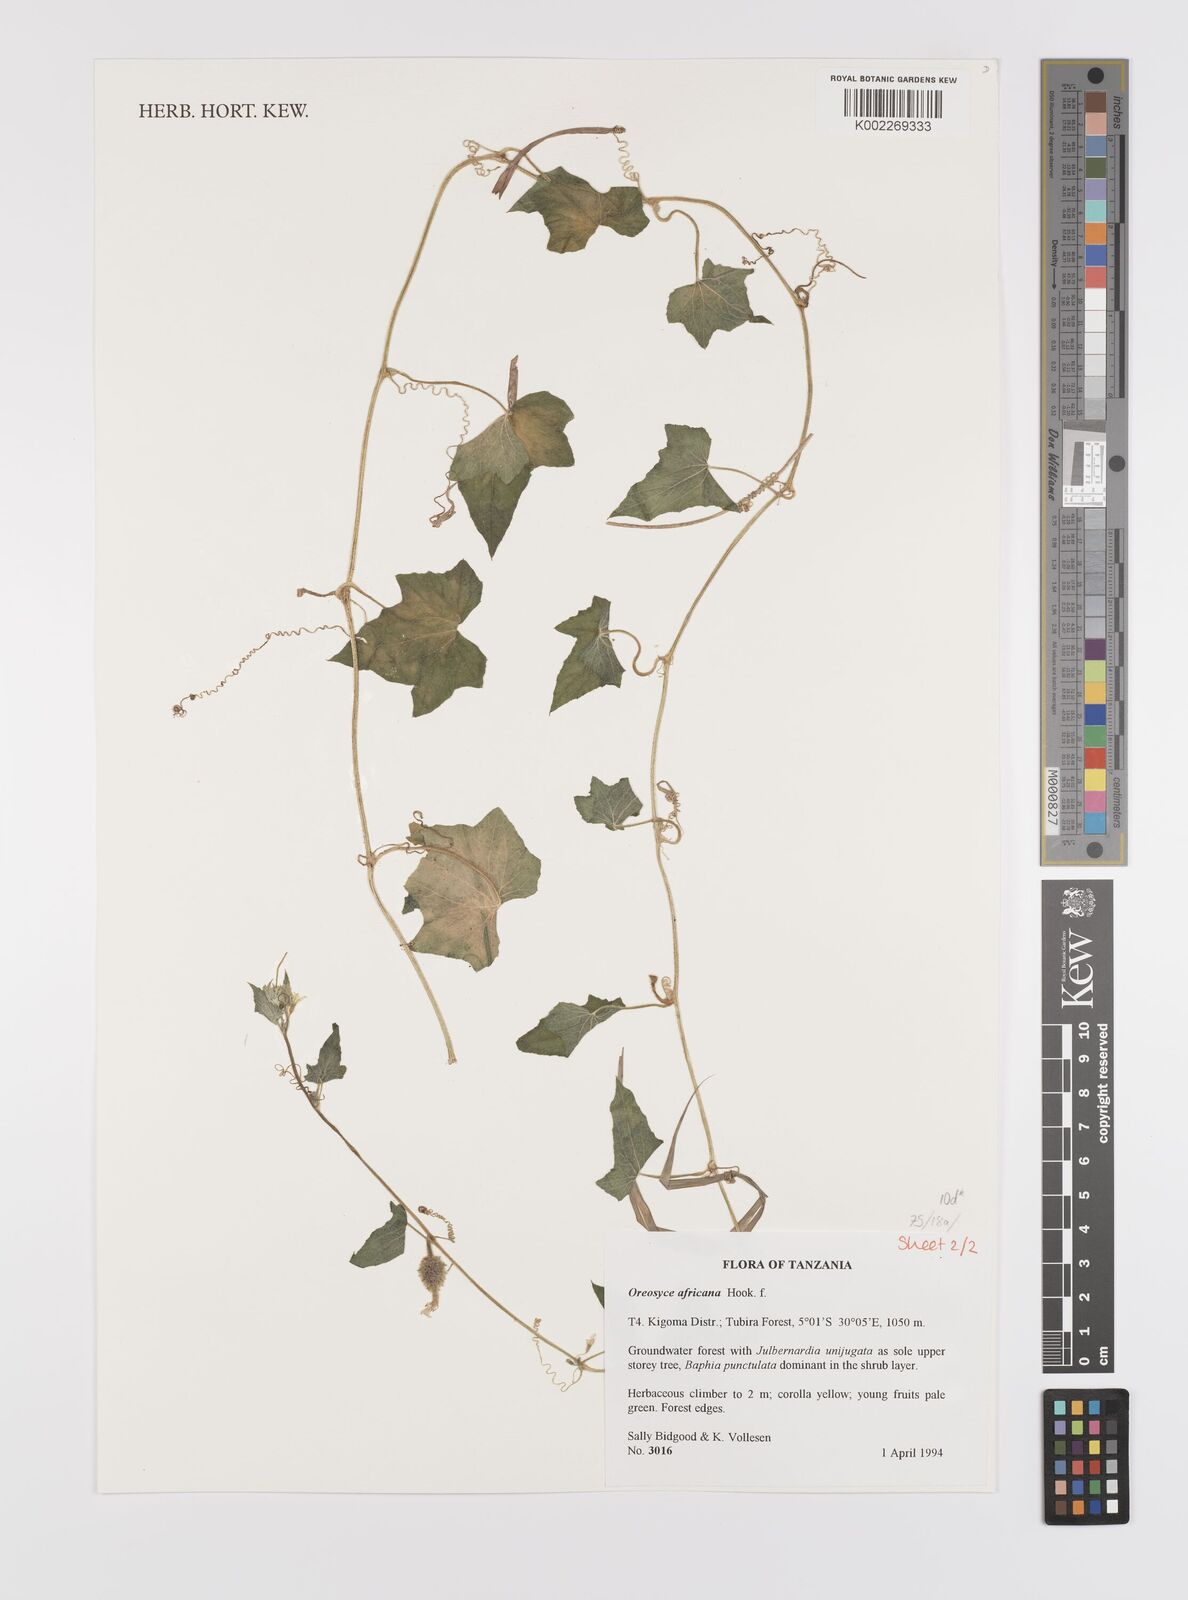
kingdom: Plantae
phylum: Tracheophyta
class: Magnoliopsida
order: Cucurbitales
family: Cucurbitaceae
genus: Cucumis
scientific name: Cucumis oreosyce
